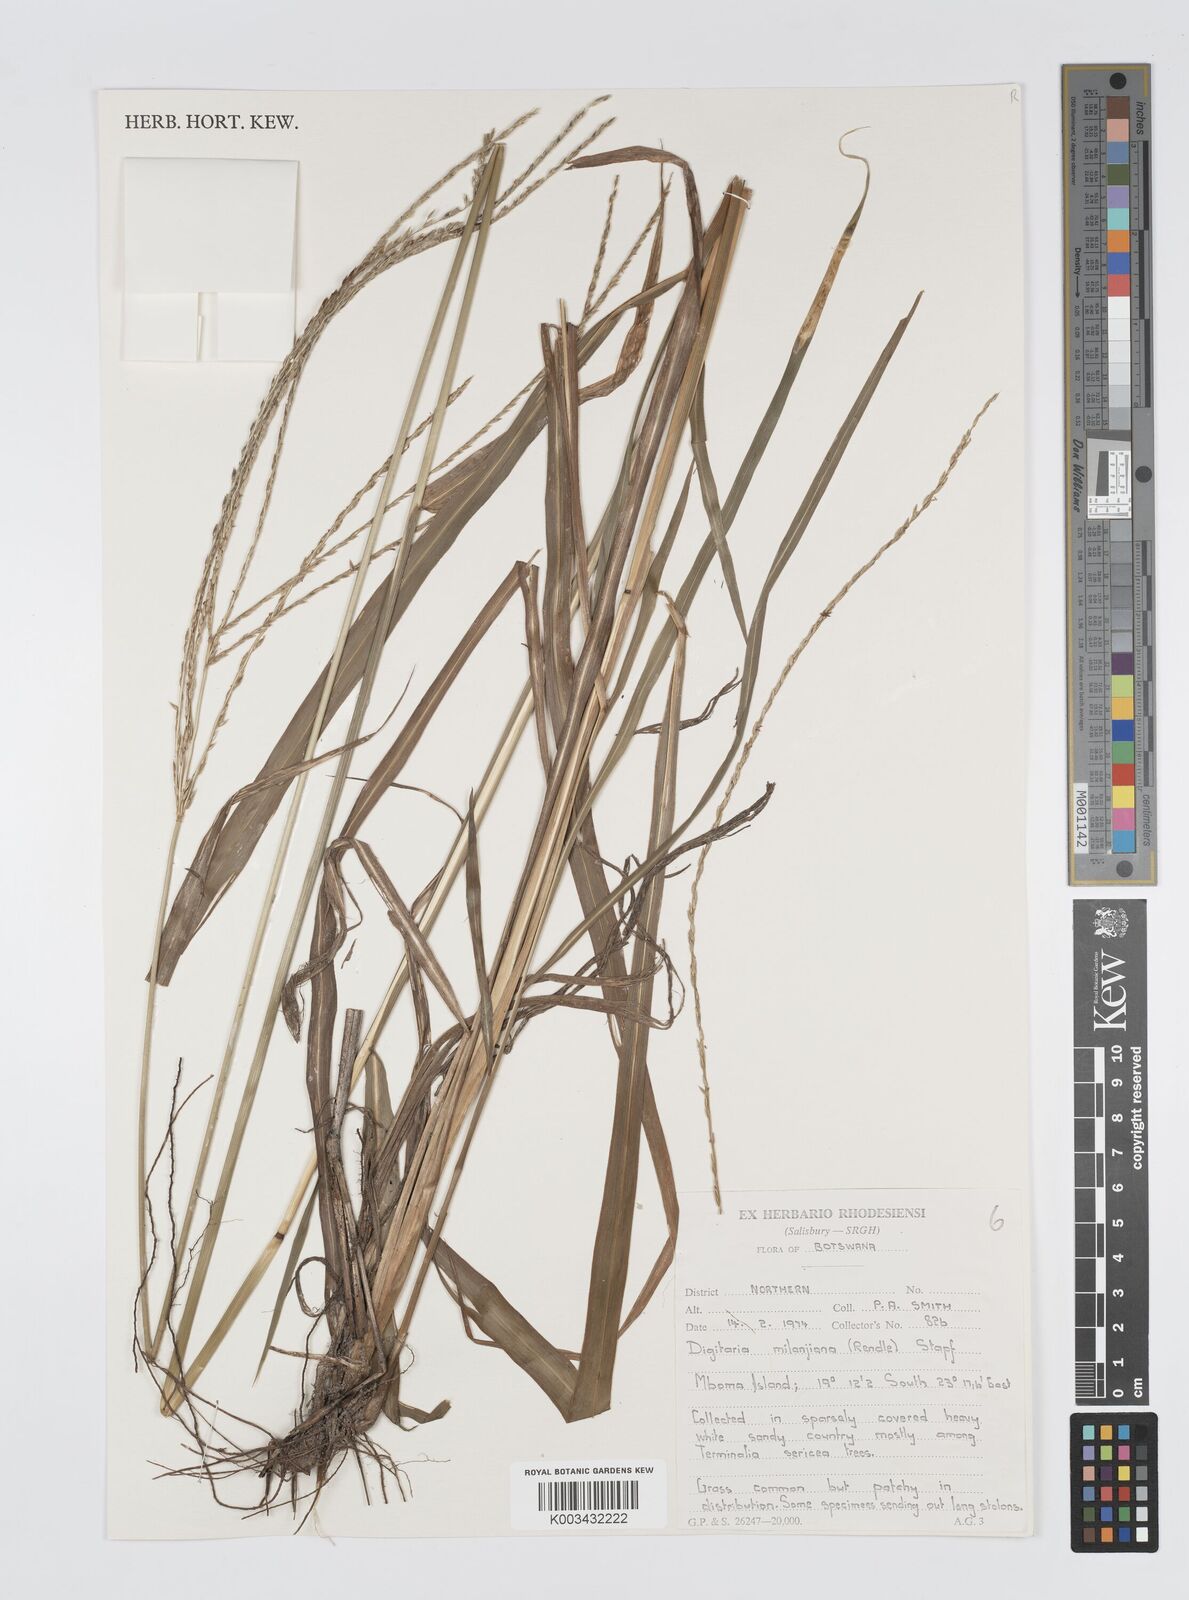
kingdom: Plantae
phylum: Tracheophyta
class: Liliopsida
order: Poales
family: Poaceae
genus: Digitaria
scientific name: Digitaria milanjiana
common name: Madagascar crabgrass
